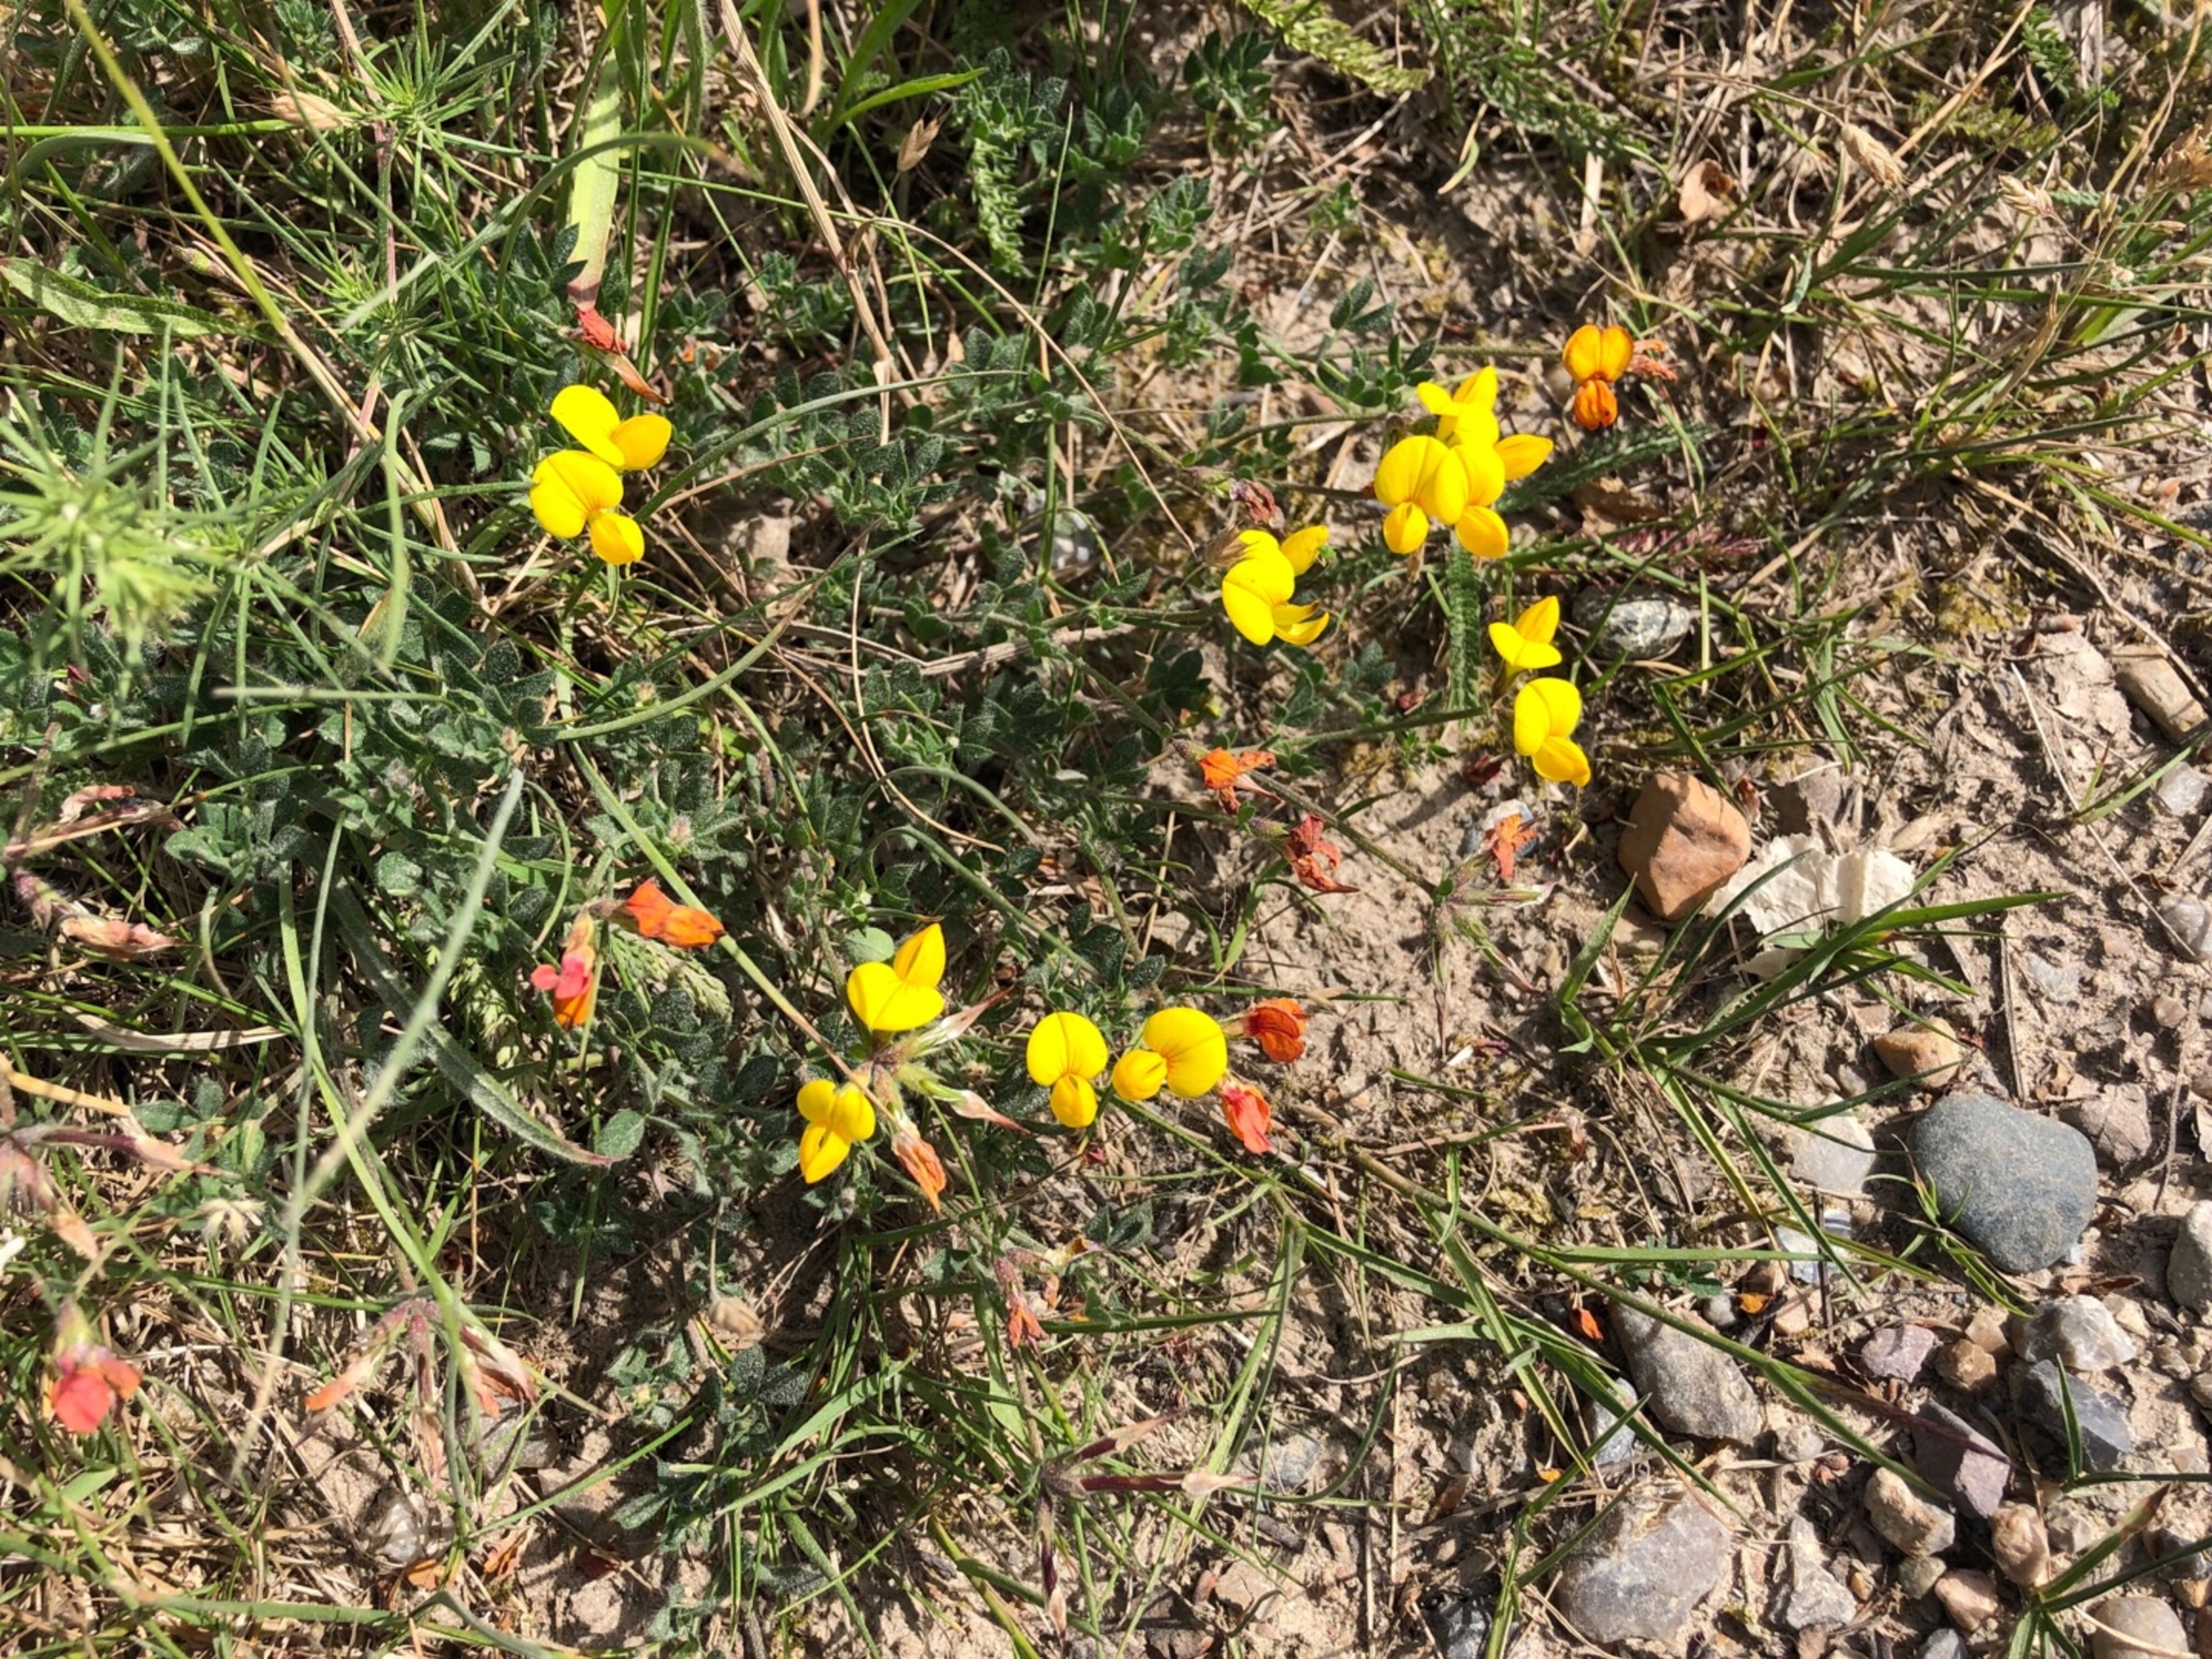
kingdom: Plantae
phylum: Tracheophyta
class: Magnoliopsida
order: Fabales
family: Fabaceae
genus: Lotus
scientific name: Lotus corniculatus
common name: Almindelig kællingetand
